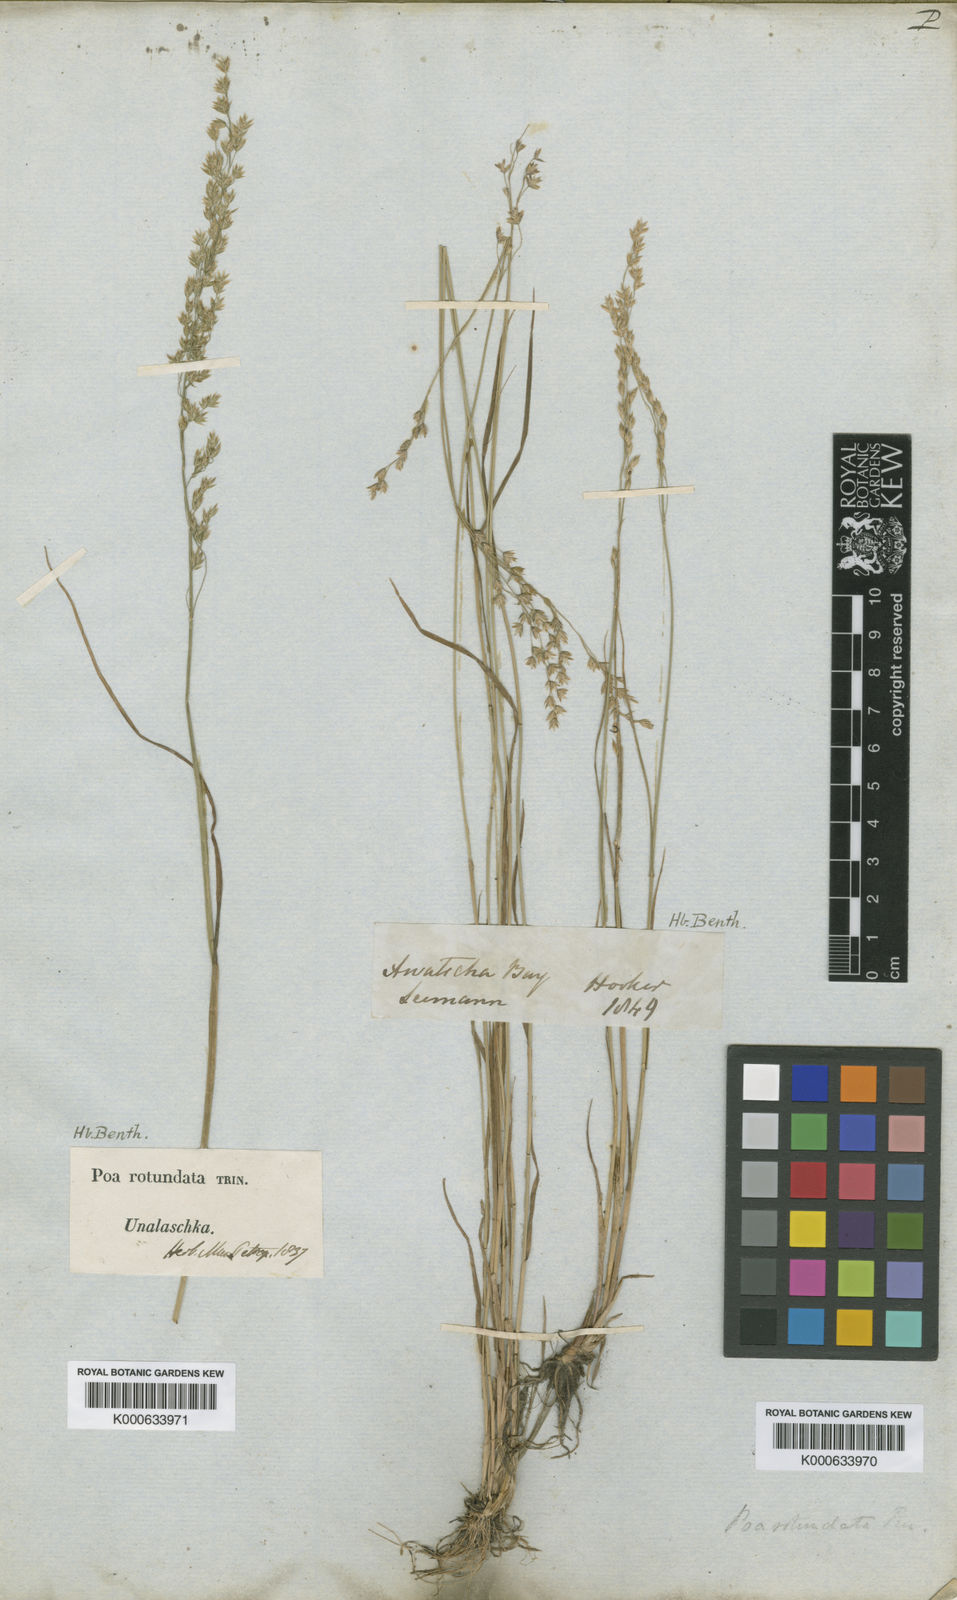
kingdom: Plantae
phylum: Tracheophyta
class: Liliopsida
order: Poales
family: Poaceae
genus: Poa
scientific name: Poa palustris
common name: Swamp meadow-grass
